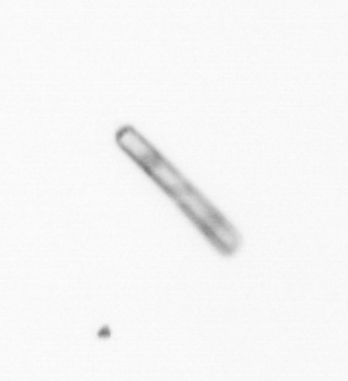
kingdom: Chromista
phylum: Ochrophyta
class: Bacillariophyceae
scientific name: Bacillariophyceae
